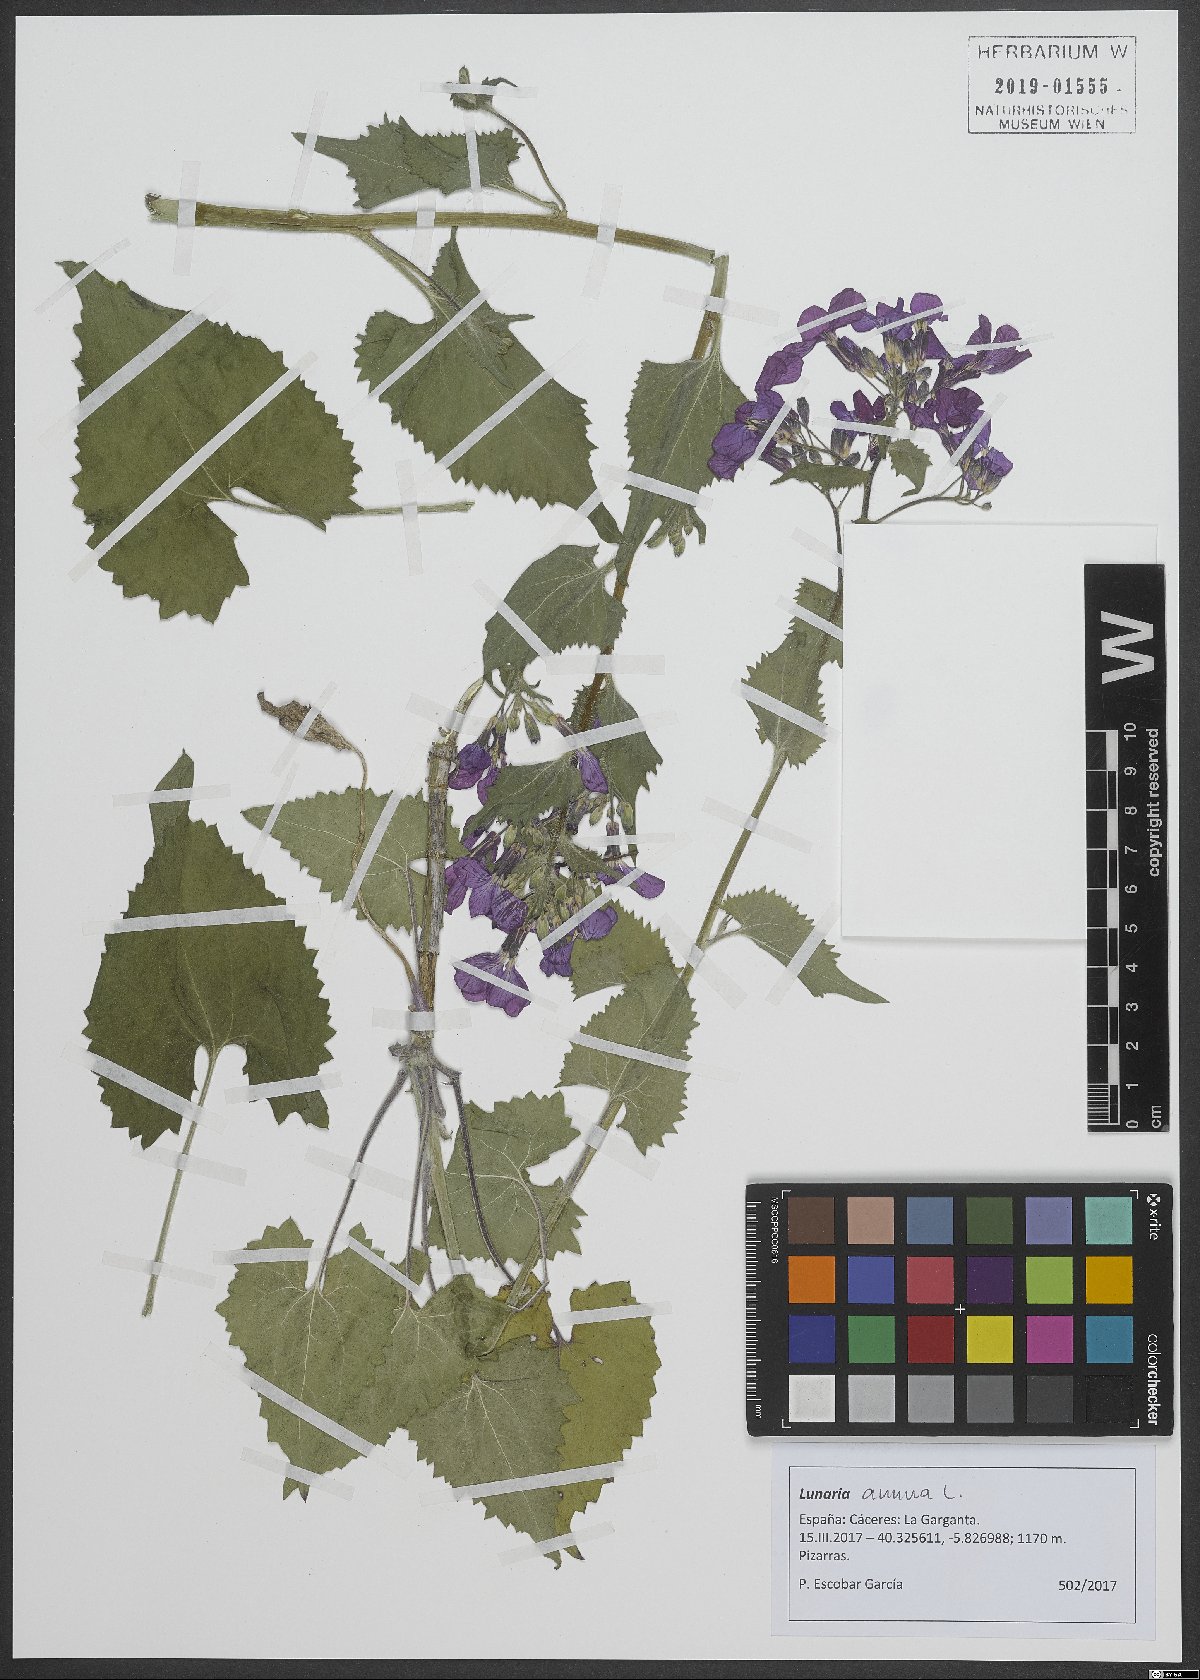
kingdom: Plantae
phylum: Tracheophyta
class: Magnoliopsida
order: Brassicales
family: Brassicaceae
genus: Lunaria
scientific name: Lunaria annua
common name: Honesty
